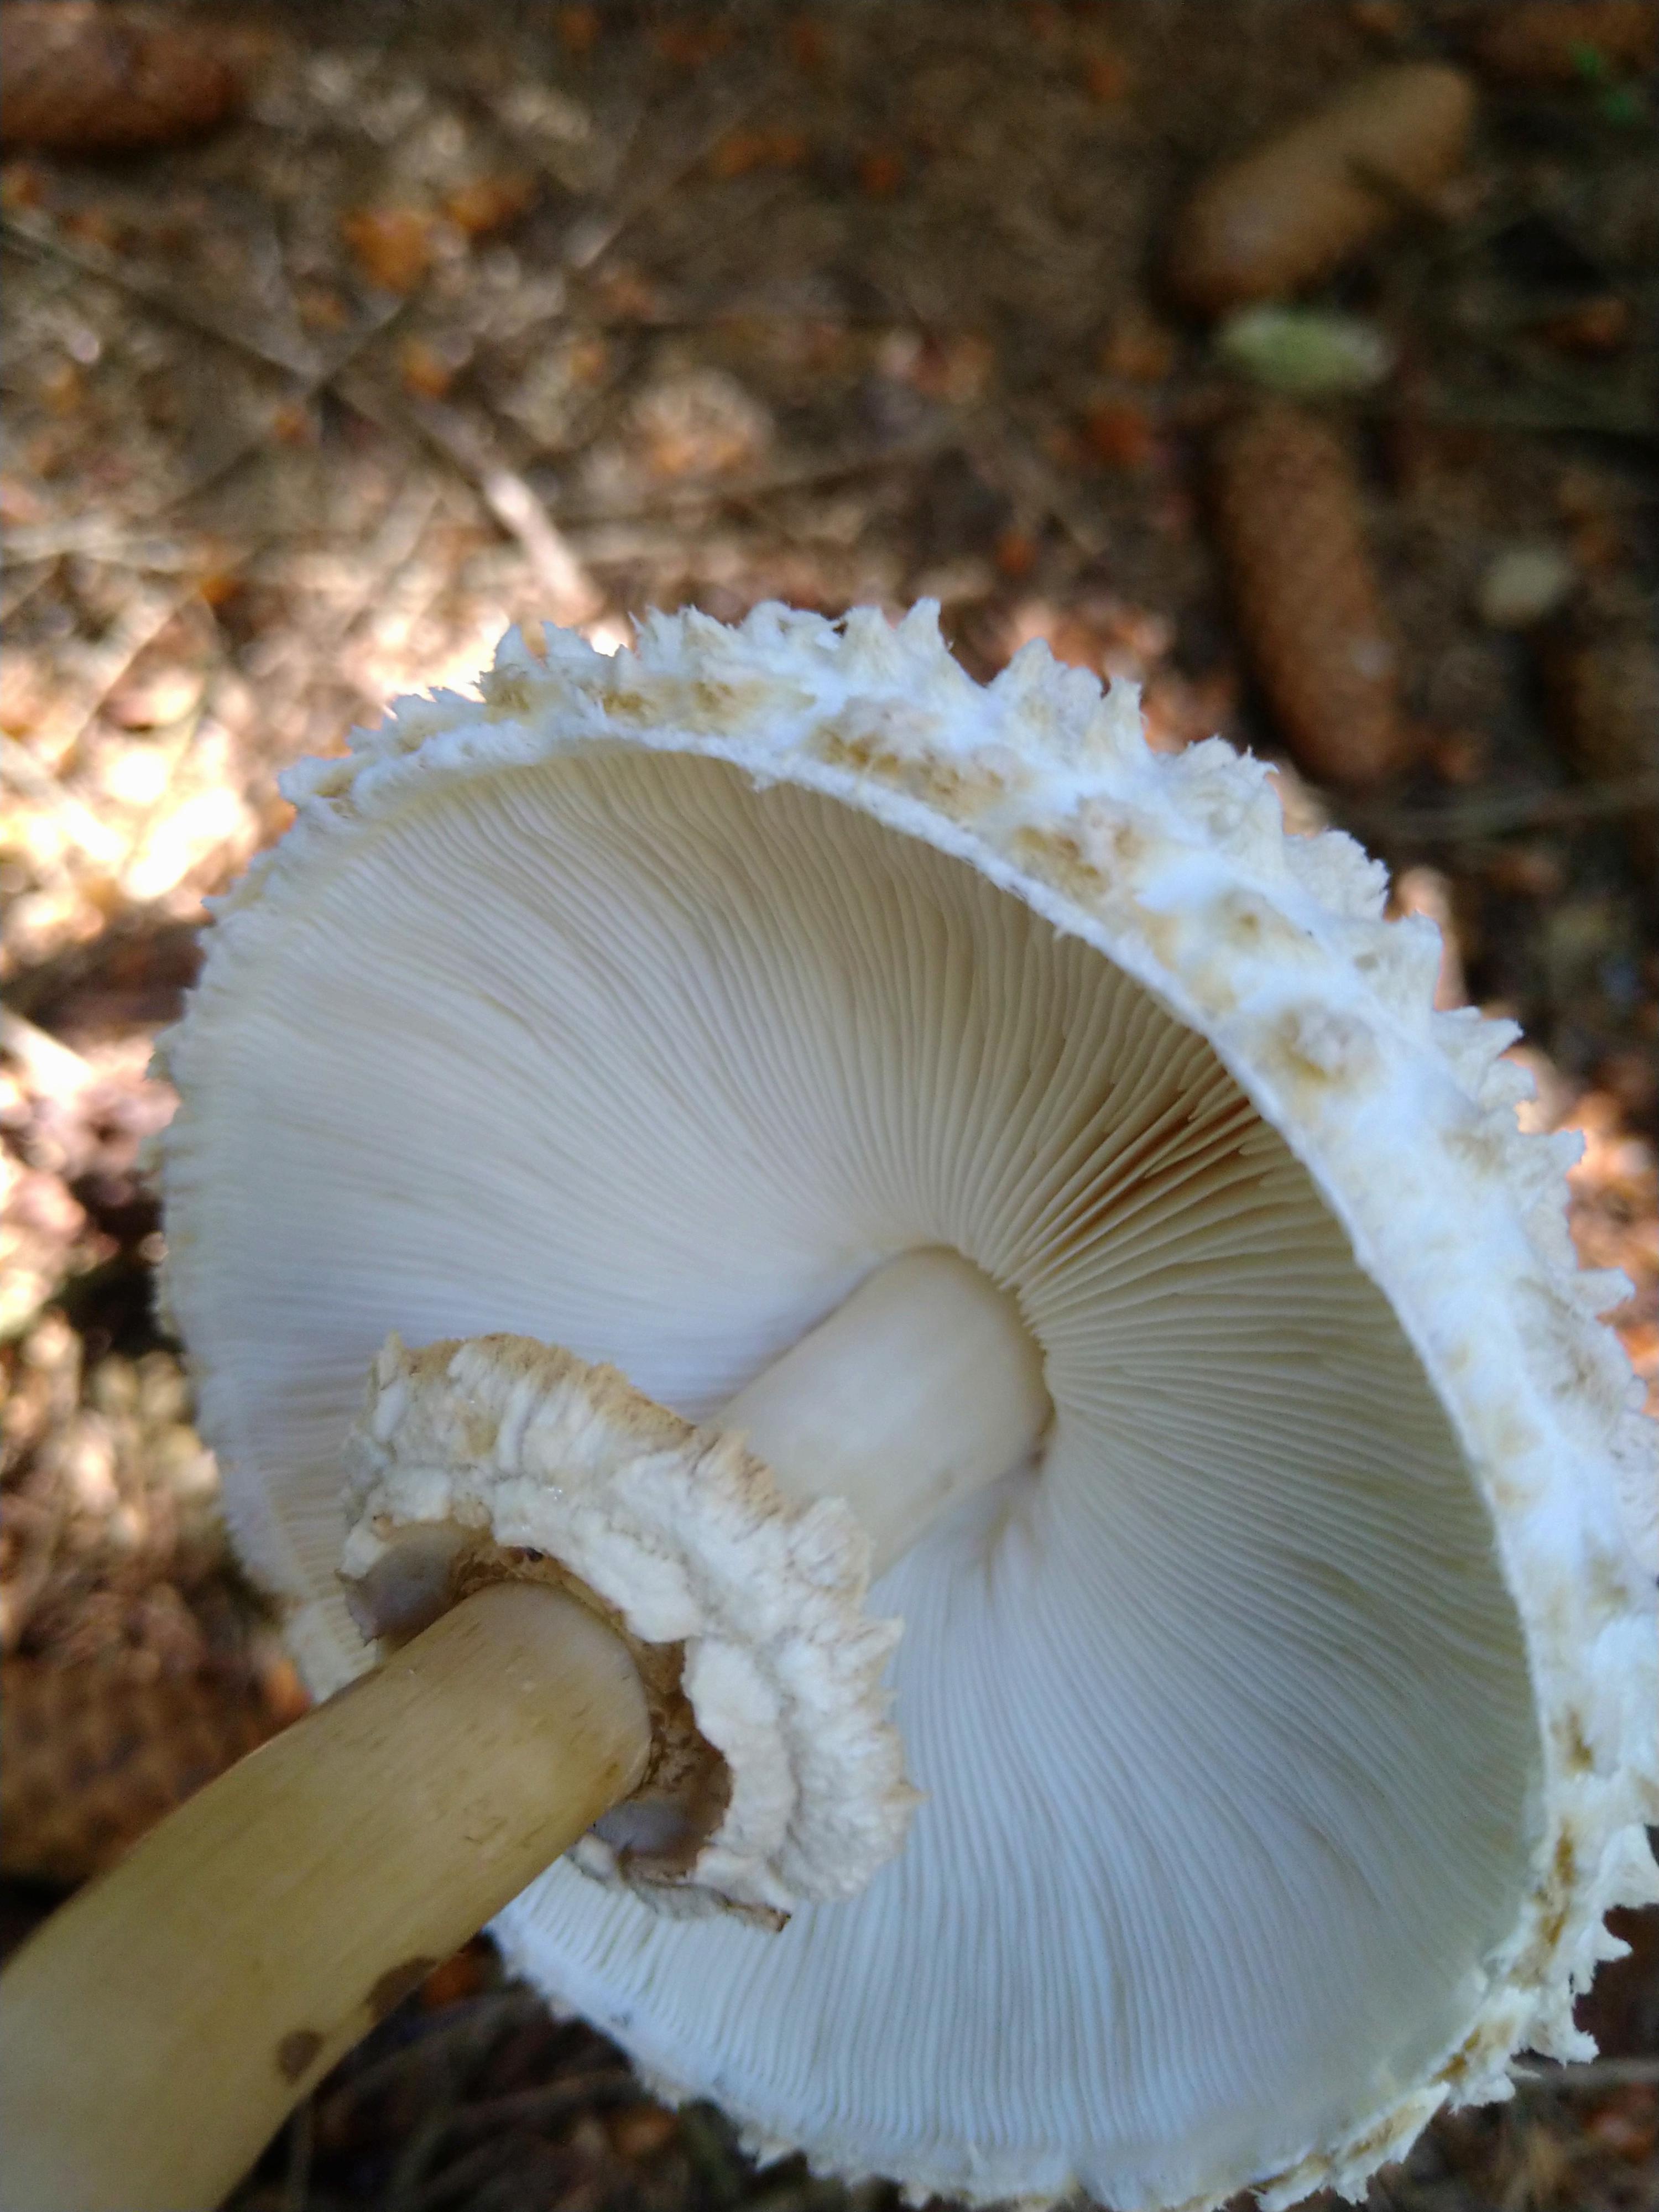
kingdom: Fungi
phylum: Basidiomycota
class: Agaricomycetes
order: Agaricales
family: Agaricaceae
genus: Leucoagaricus
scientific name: Leucoagaricus nympharum
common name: gran-silkehat
